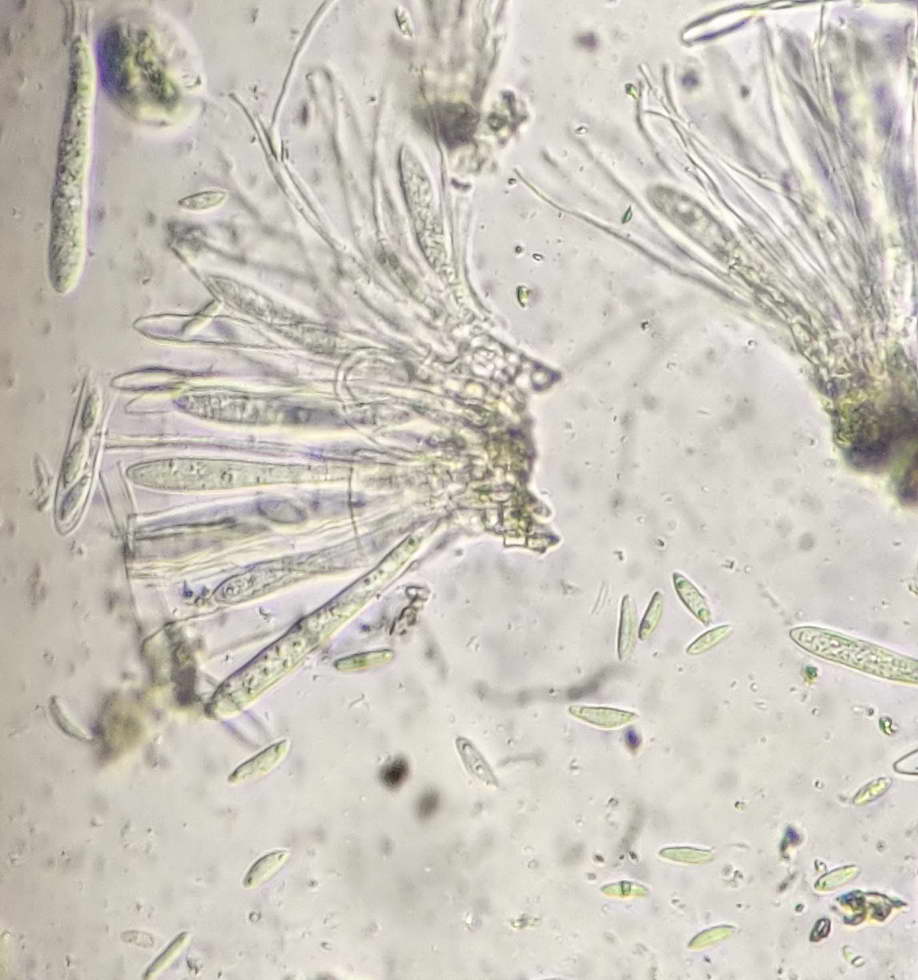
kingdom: Fungi
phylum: Ascomycota
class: Leotiomycetes
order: Phacidiales
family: Phacidiaceae
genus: Phacidium
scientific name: Phacidium lauri
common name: kristtorn-tandskive
